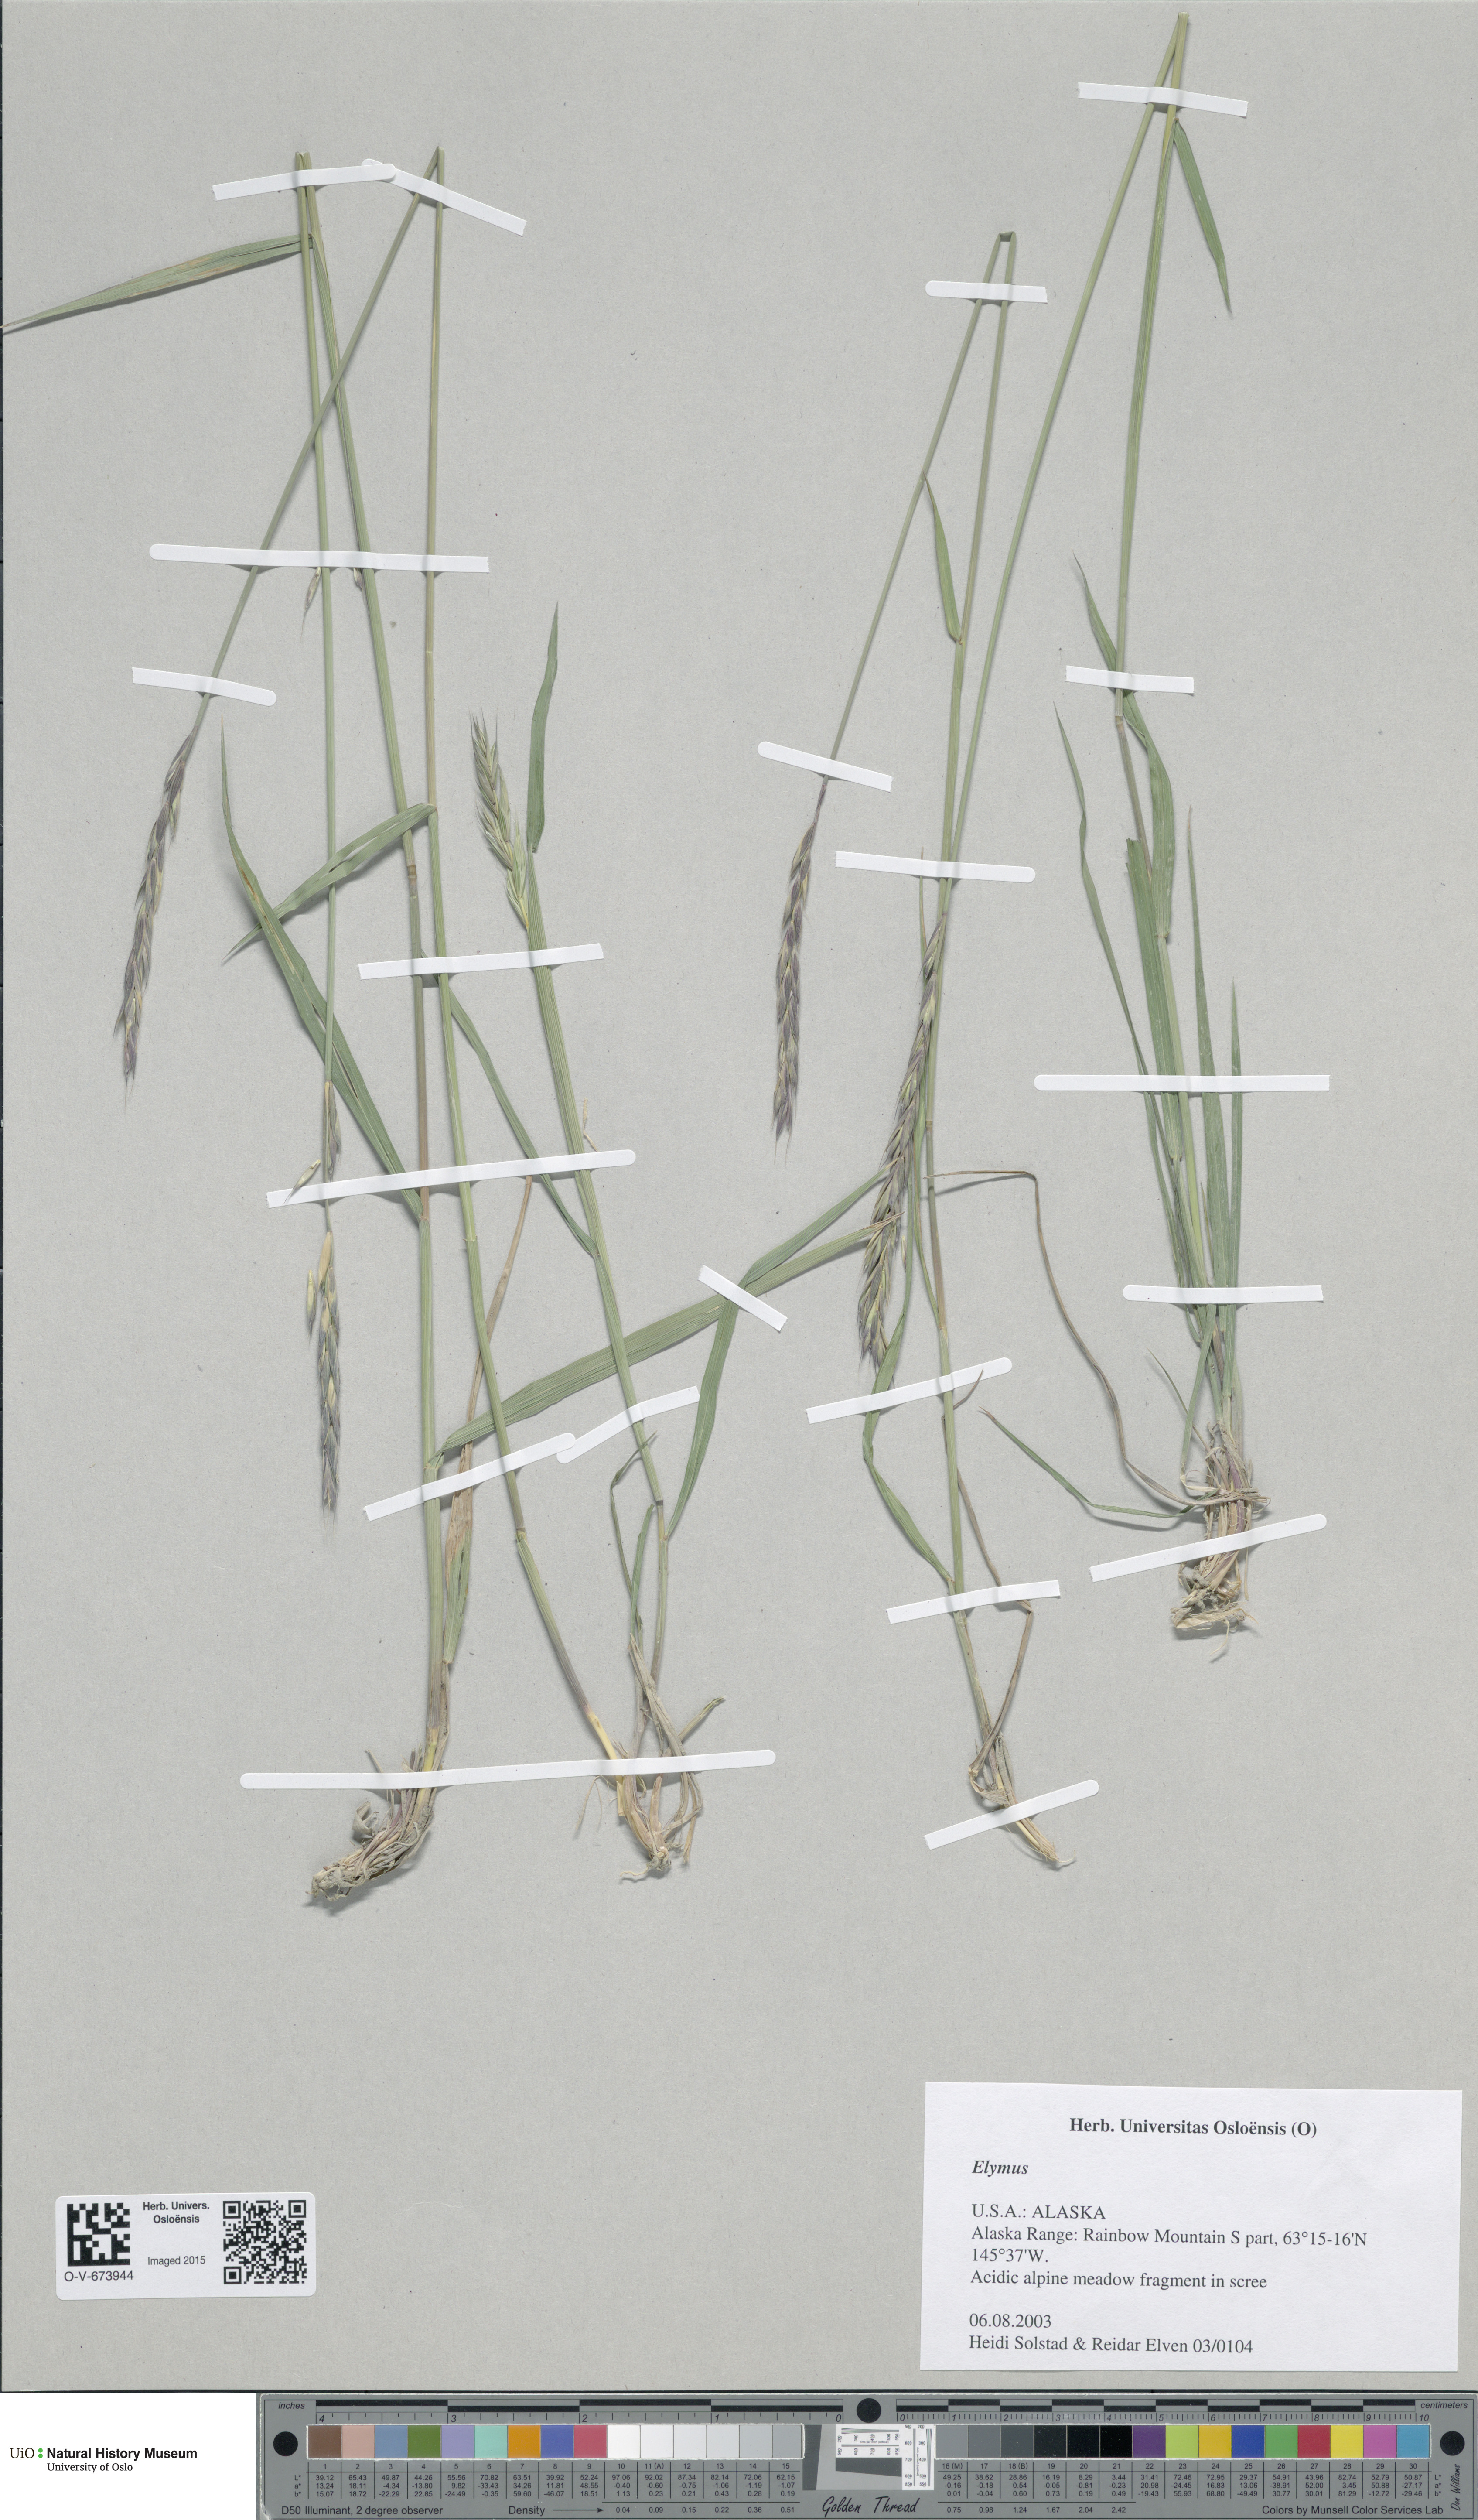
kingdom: Plantae
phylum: Tracheophyta
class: Liliopsida
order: Poales
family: Poaceae
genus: Elymus
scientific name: Elymus
